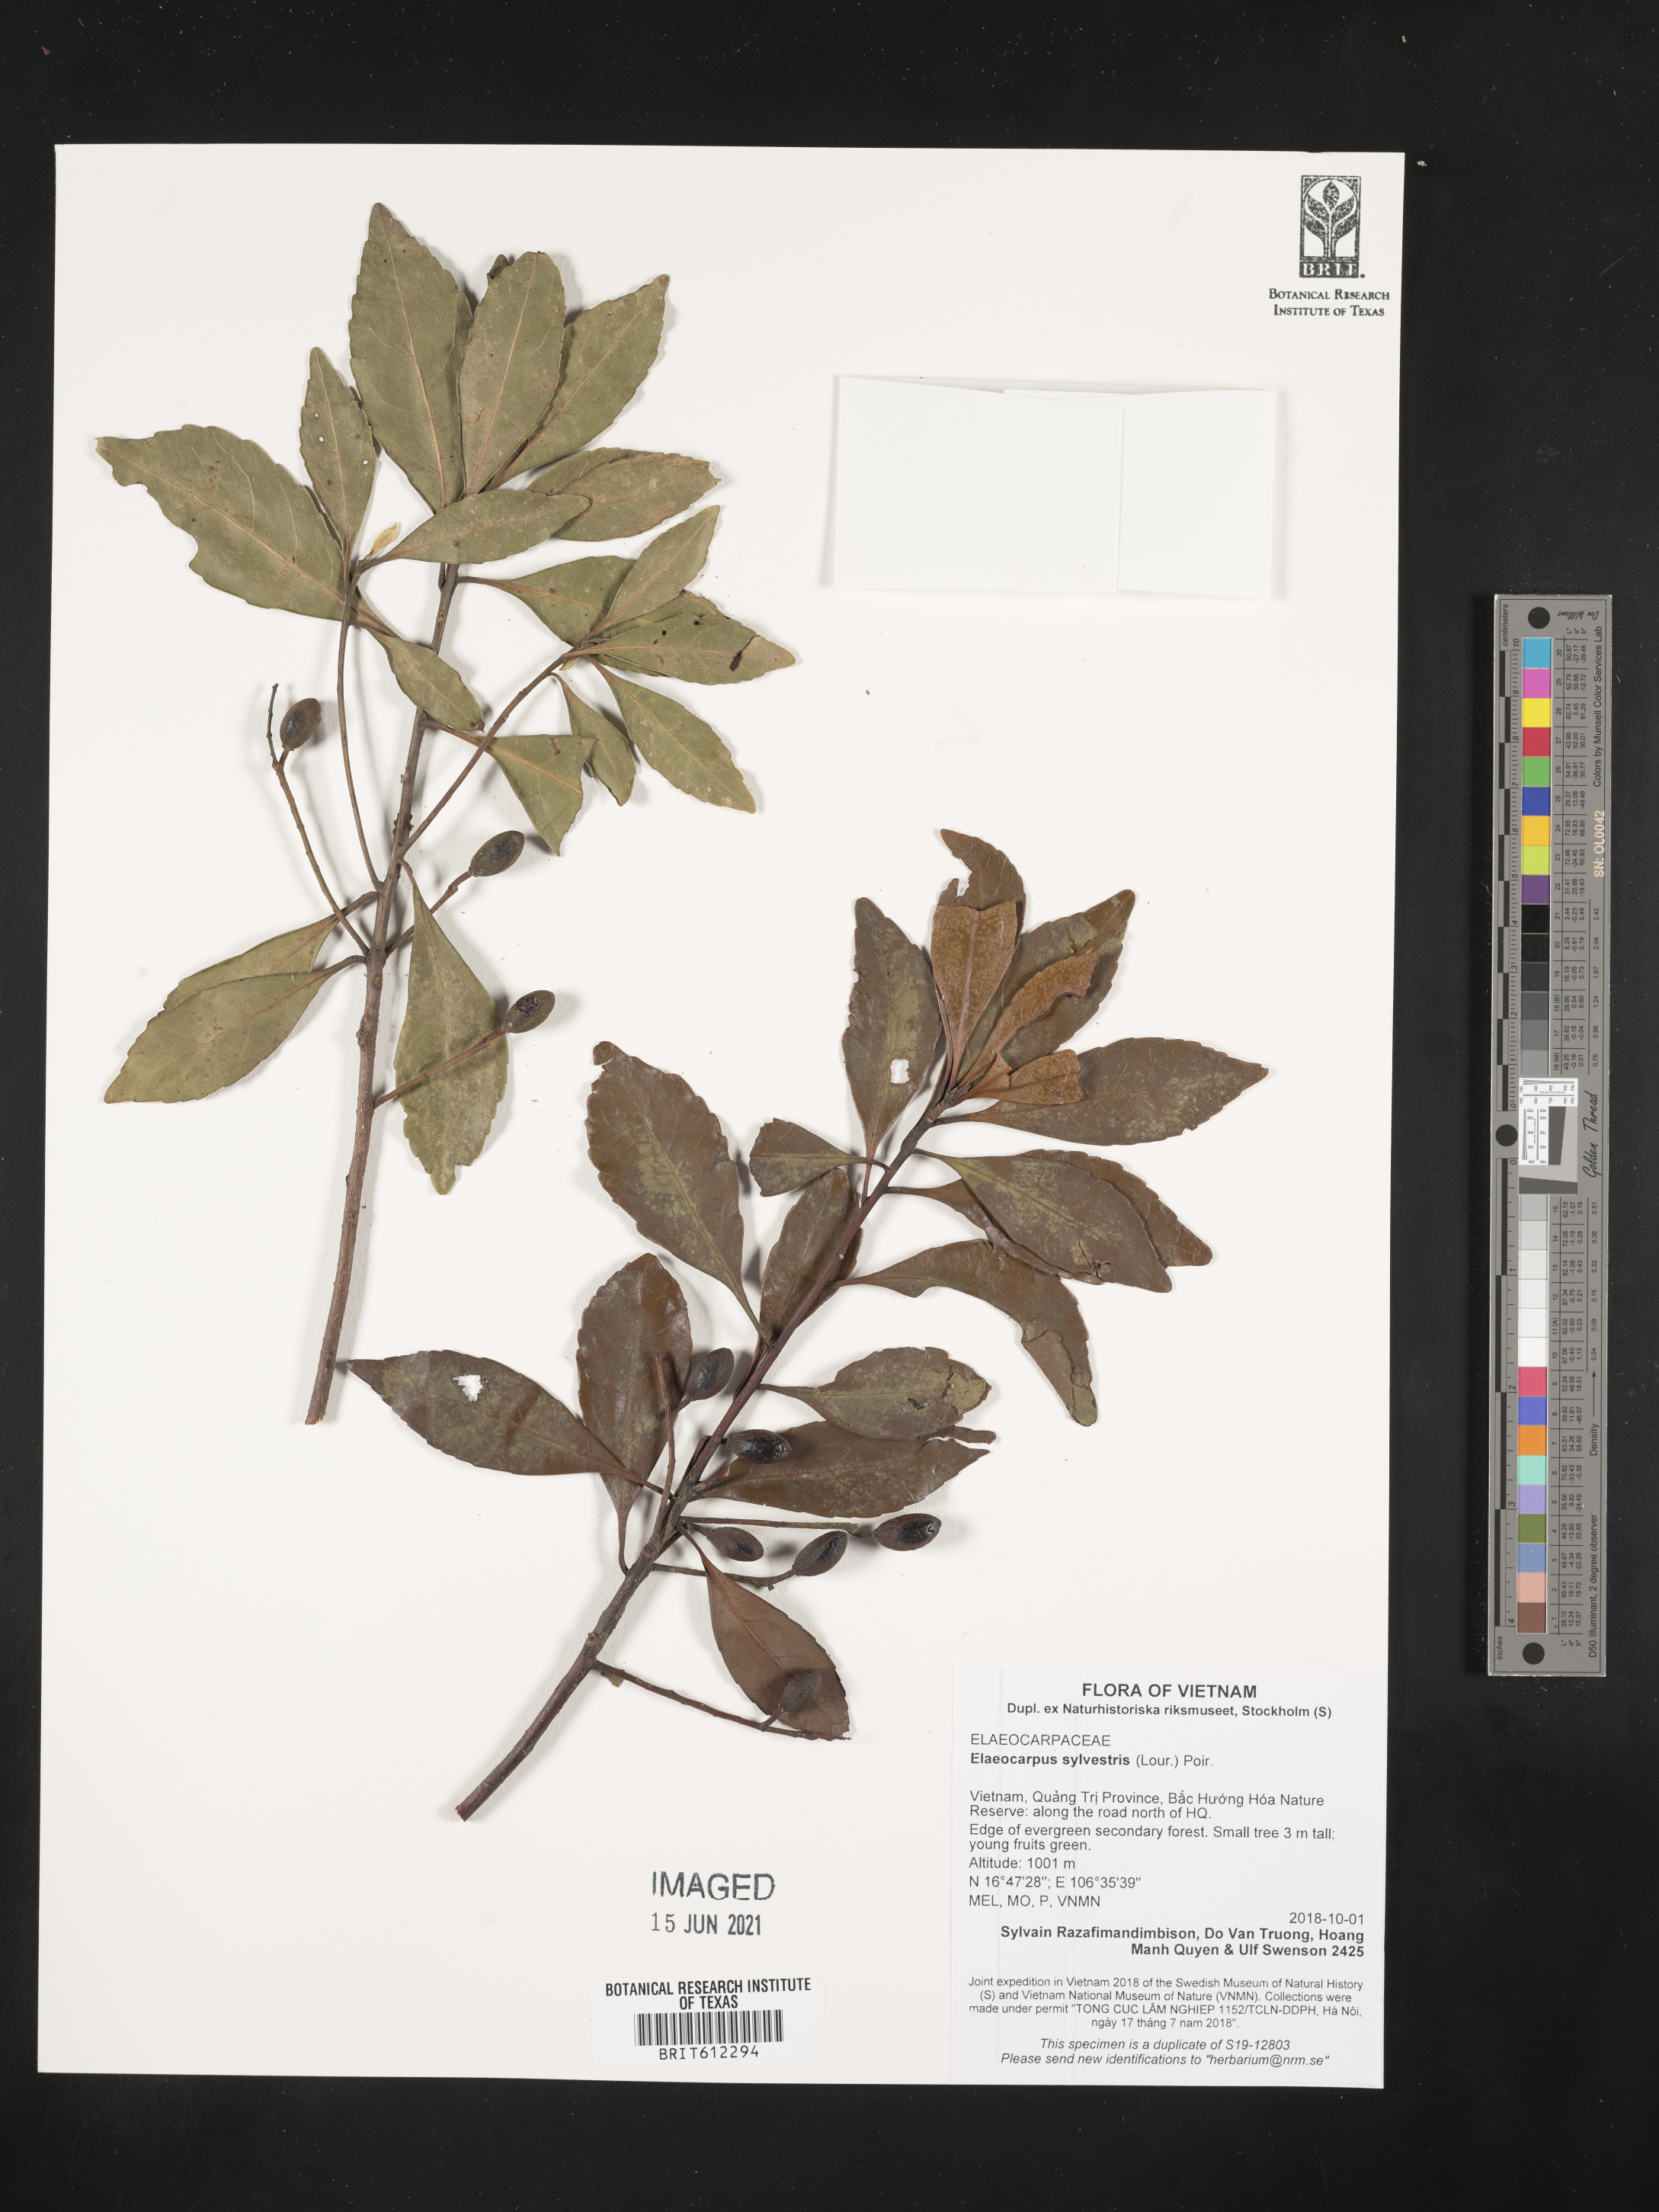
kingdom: Plantae
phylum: Tracheophyta
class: Magnoliopsida
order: Oxalidales
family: Elaeocarpaceae
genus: Elaeocarpus
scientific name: Elaeocarpus sylvestris
